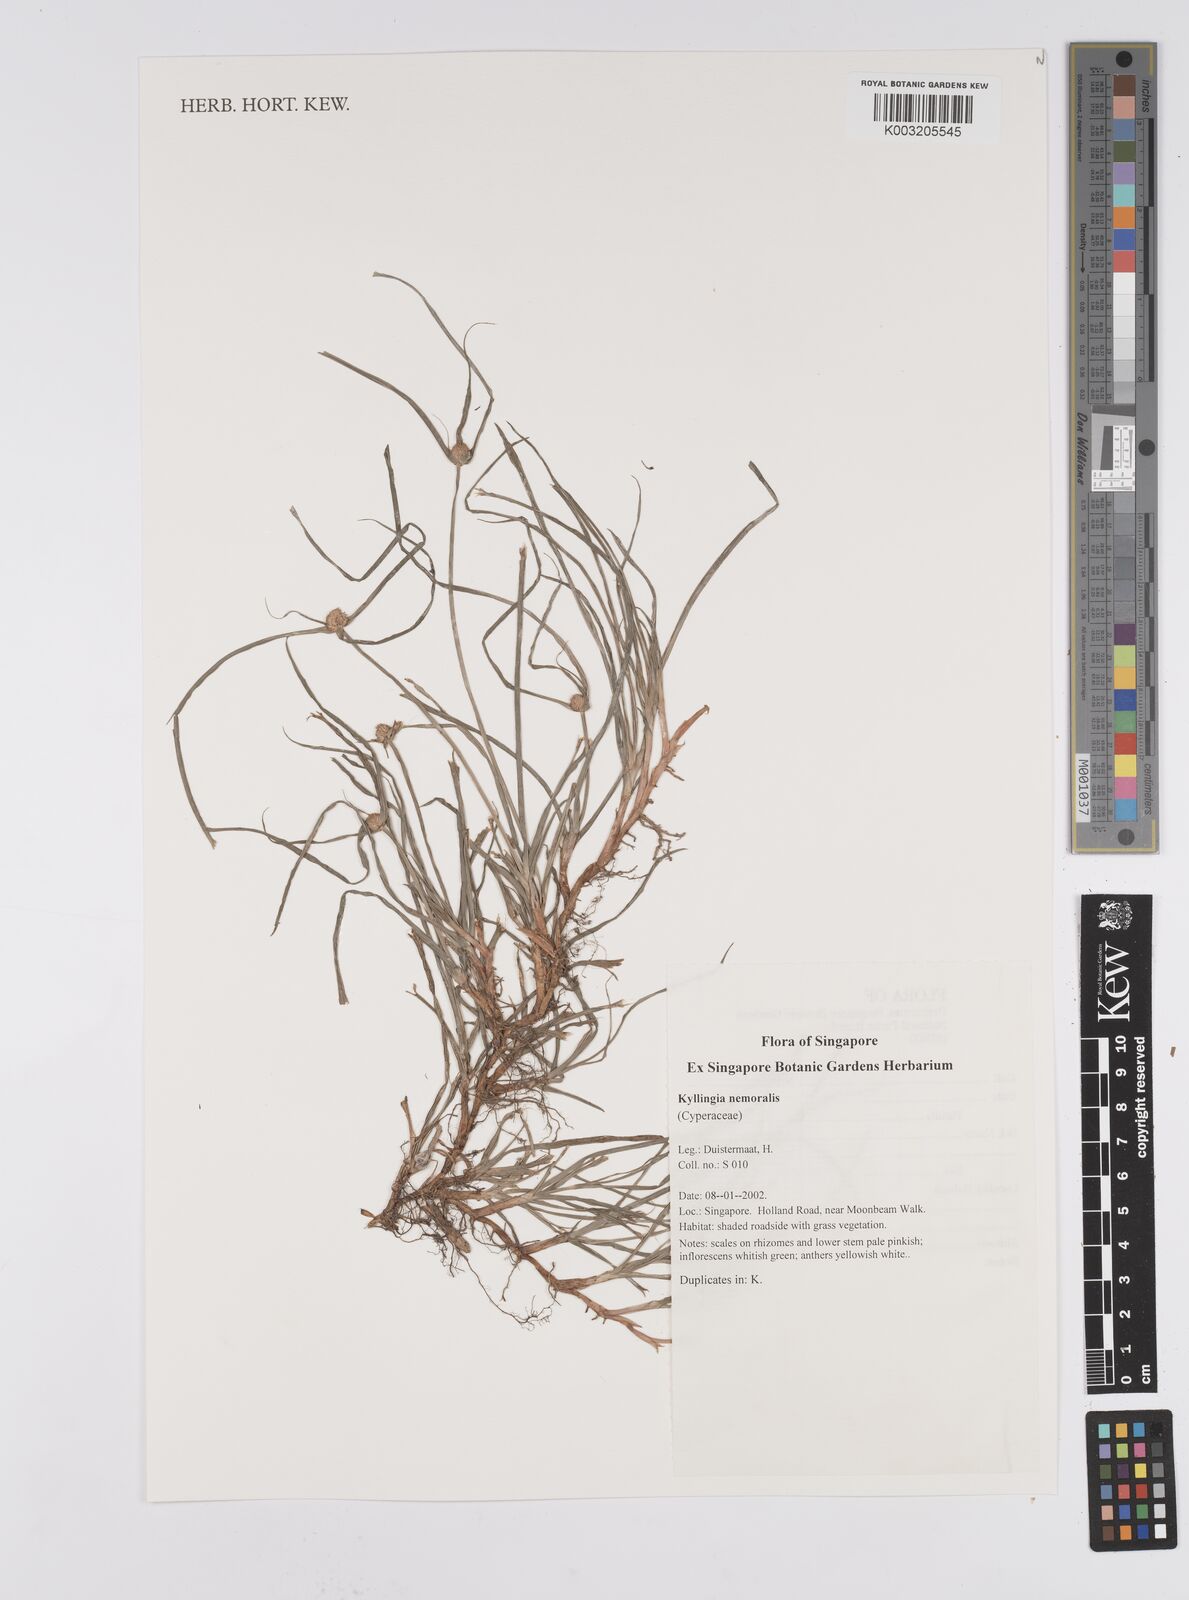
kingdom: Plantae
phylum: Tracheophyta
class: Liliopsida
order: Poales
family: Cyperaceae
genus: Cyperus
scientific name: Cyperus nemoralis
